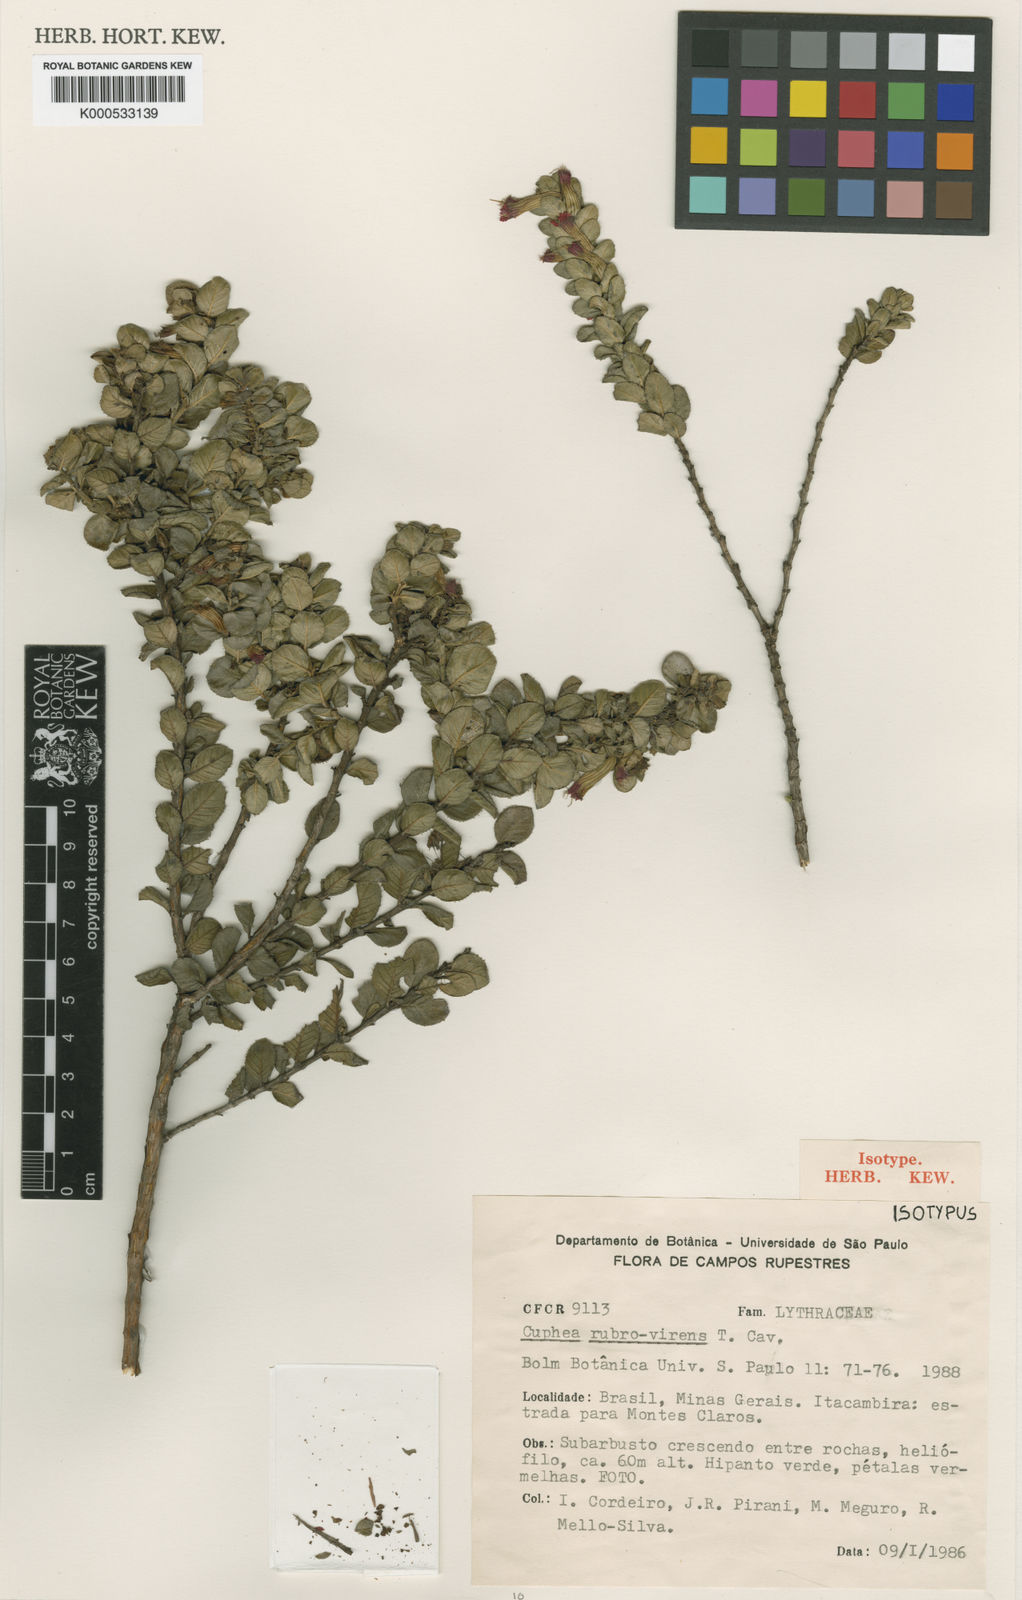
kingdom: Plantae
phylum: Tracheophyta
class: Magnoliopsida
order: Myrtales
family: Lythraceae
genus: Cuphea
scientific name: Cuphea rubrovirens
